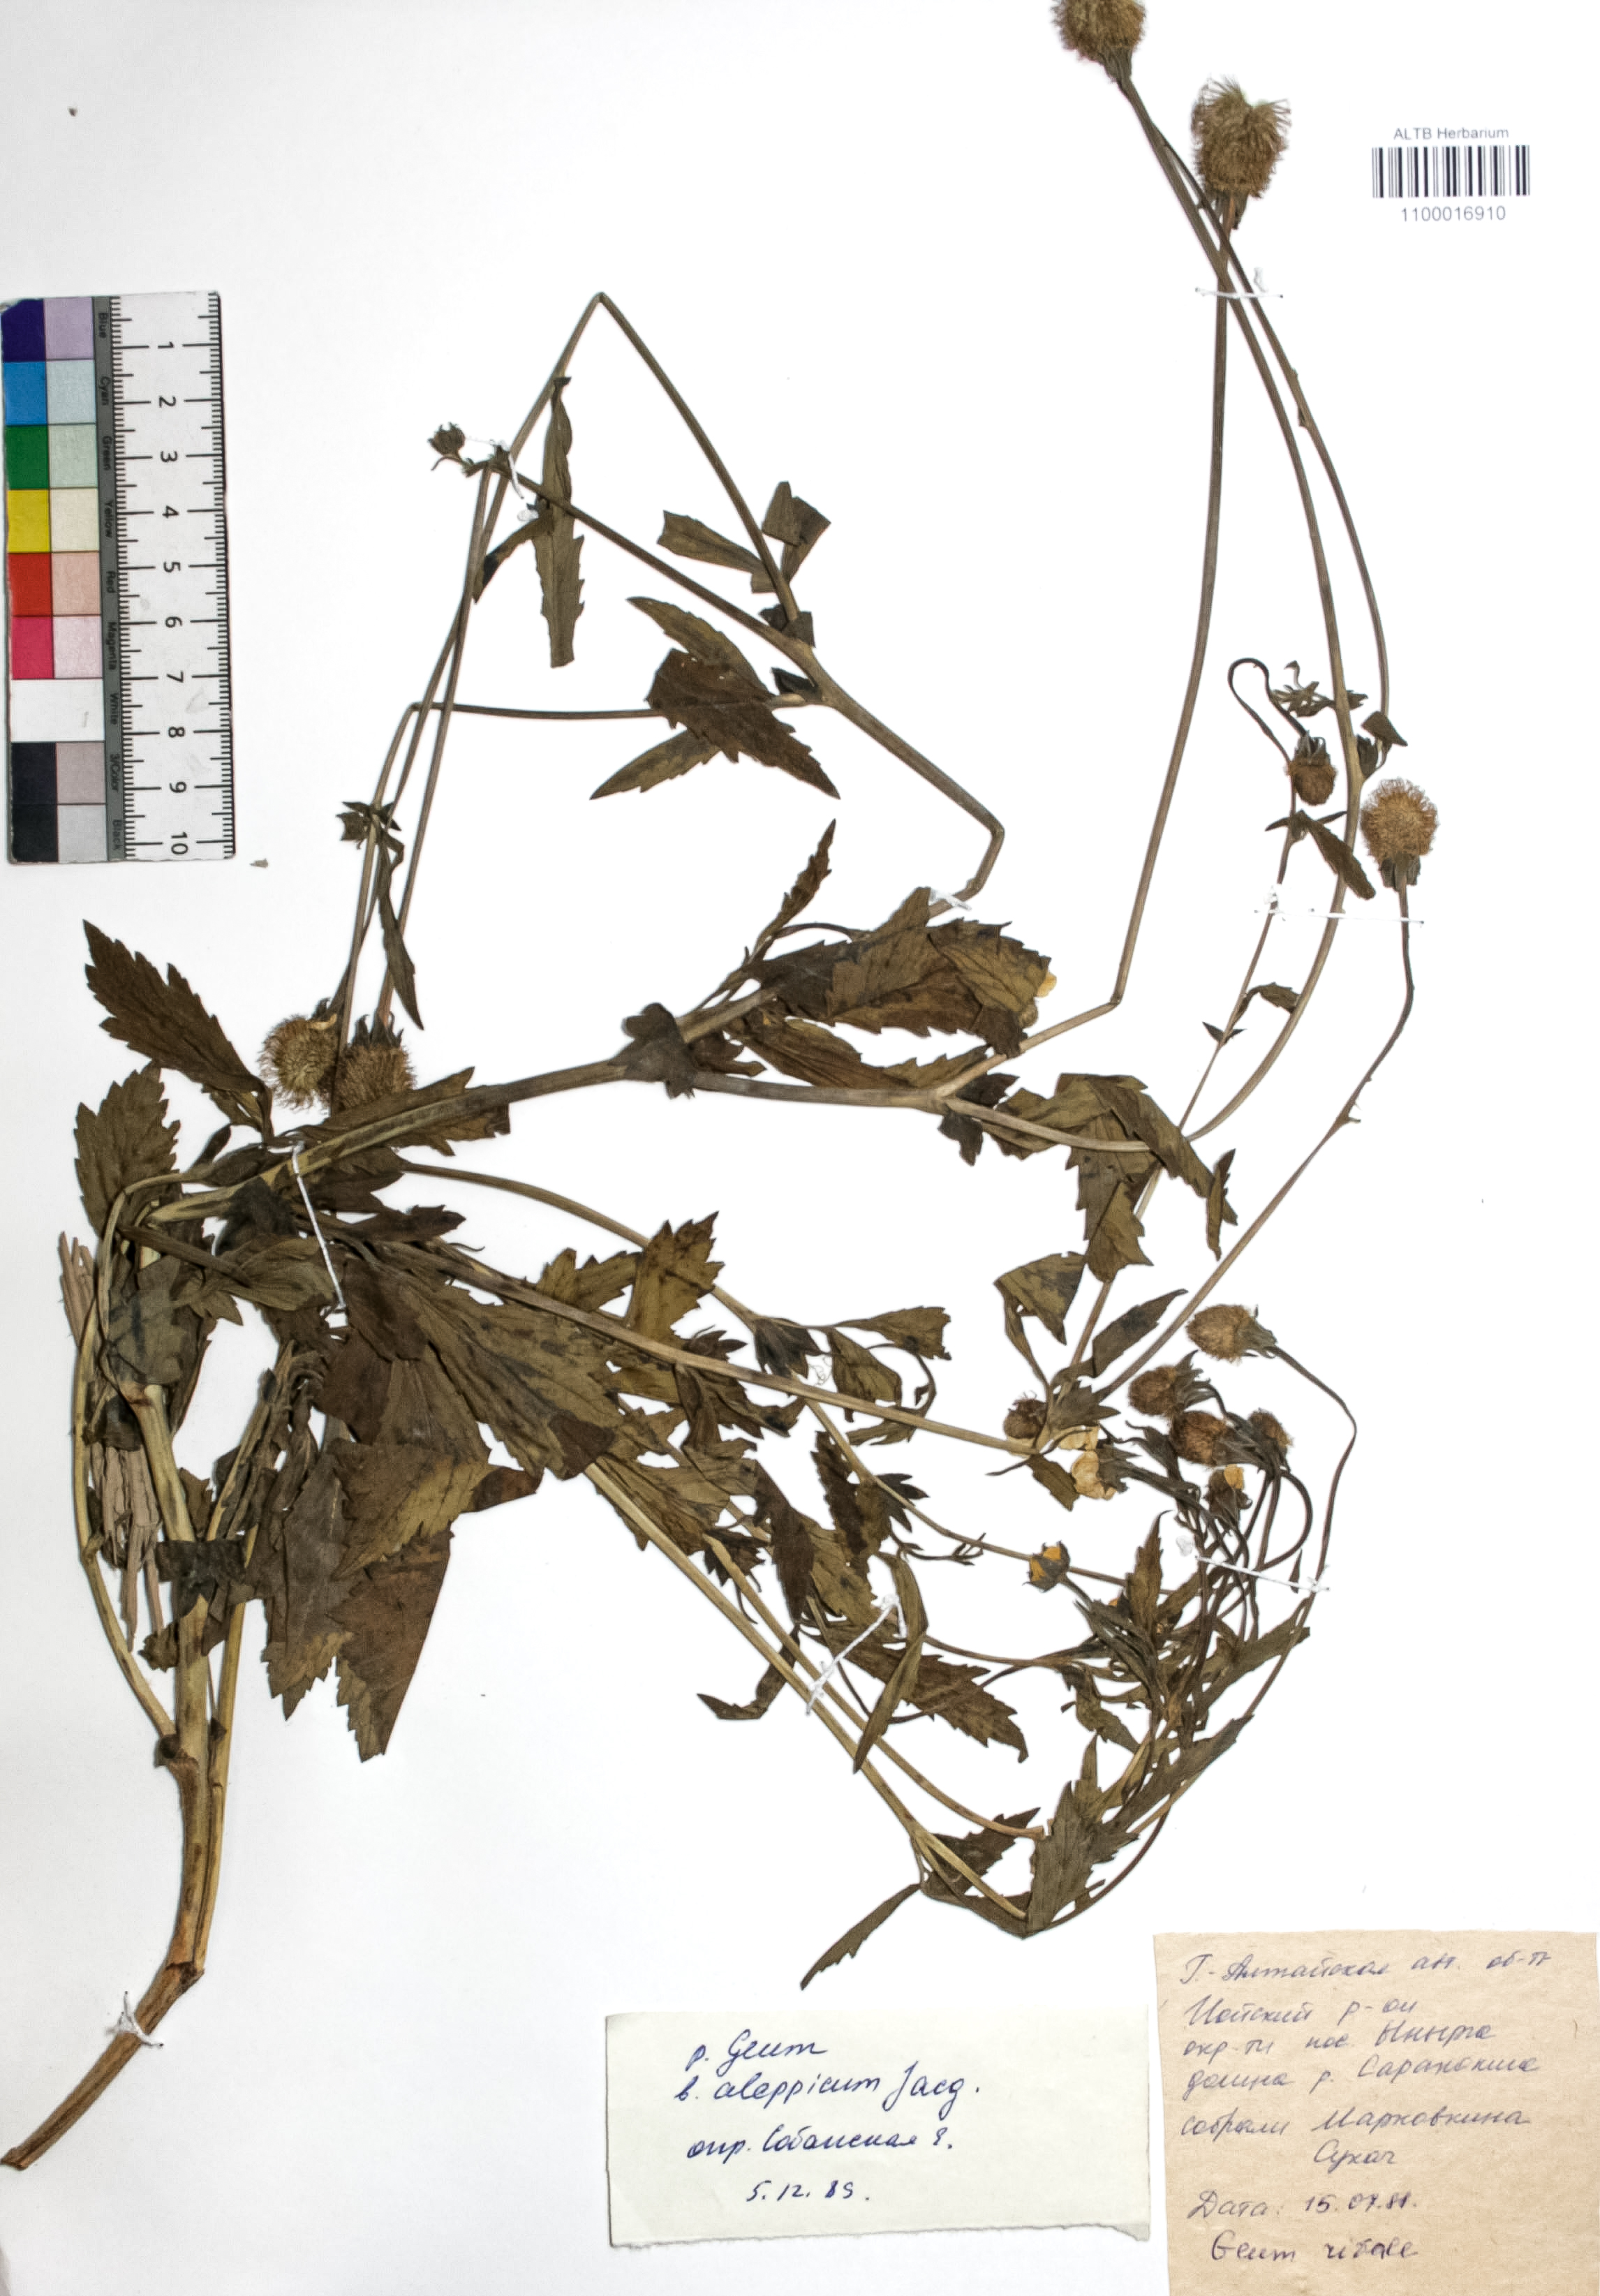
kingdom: Plantae
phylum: Tracheophyta
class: Magnoliopsida
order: Rosales
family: Rosaceae
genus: Geum
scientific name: Geum aleppicum
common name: Yellow avens
